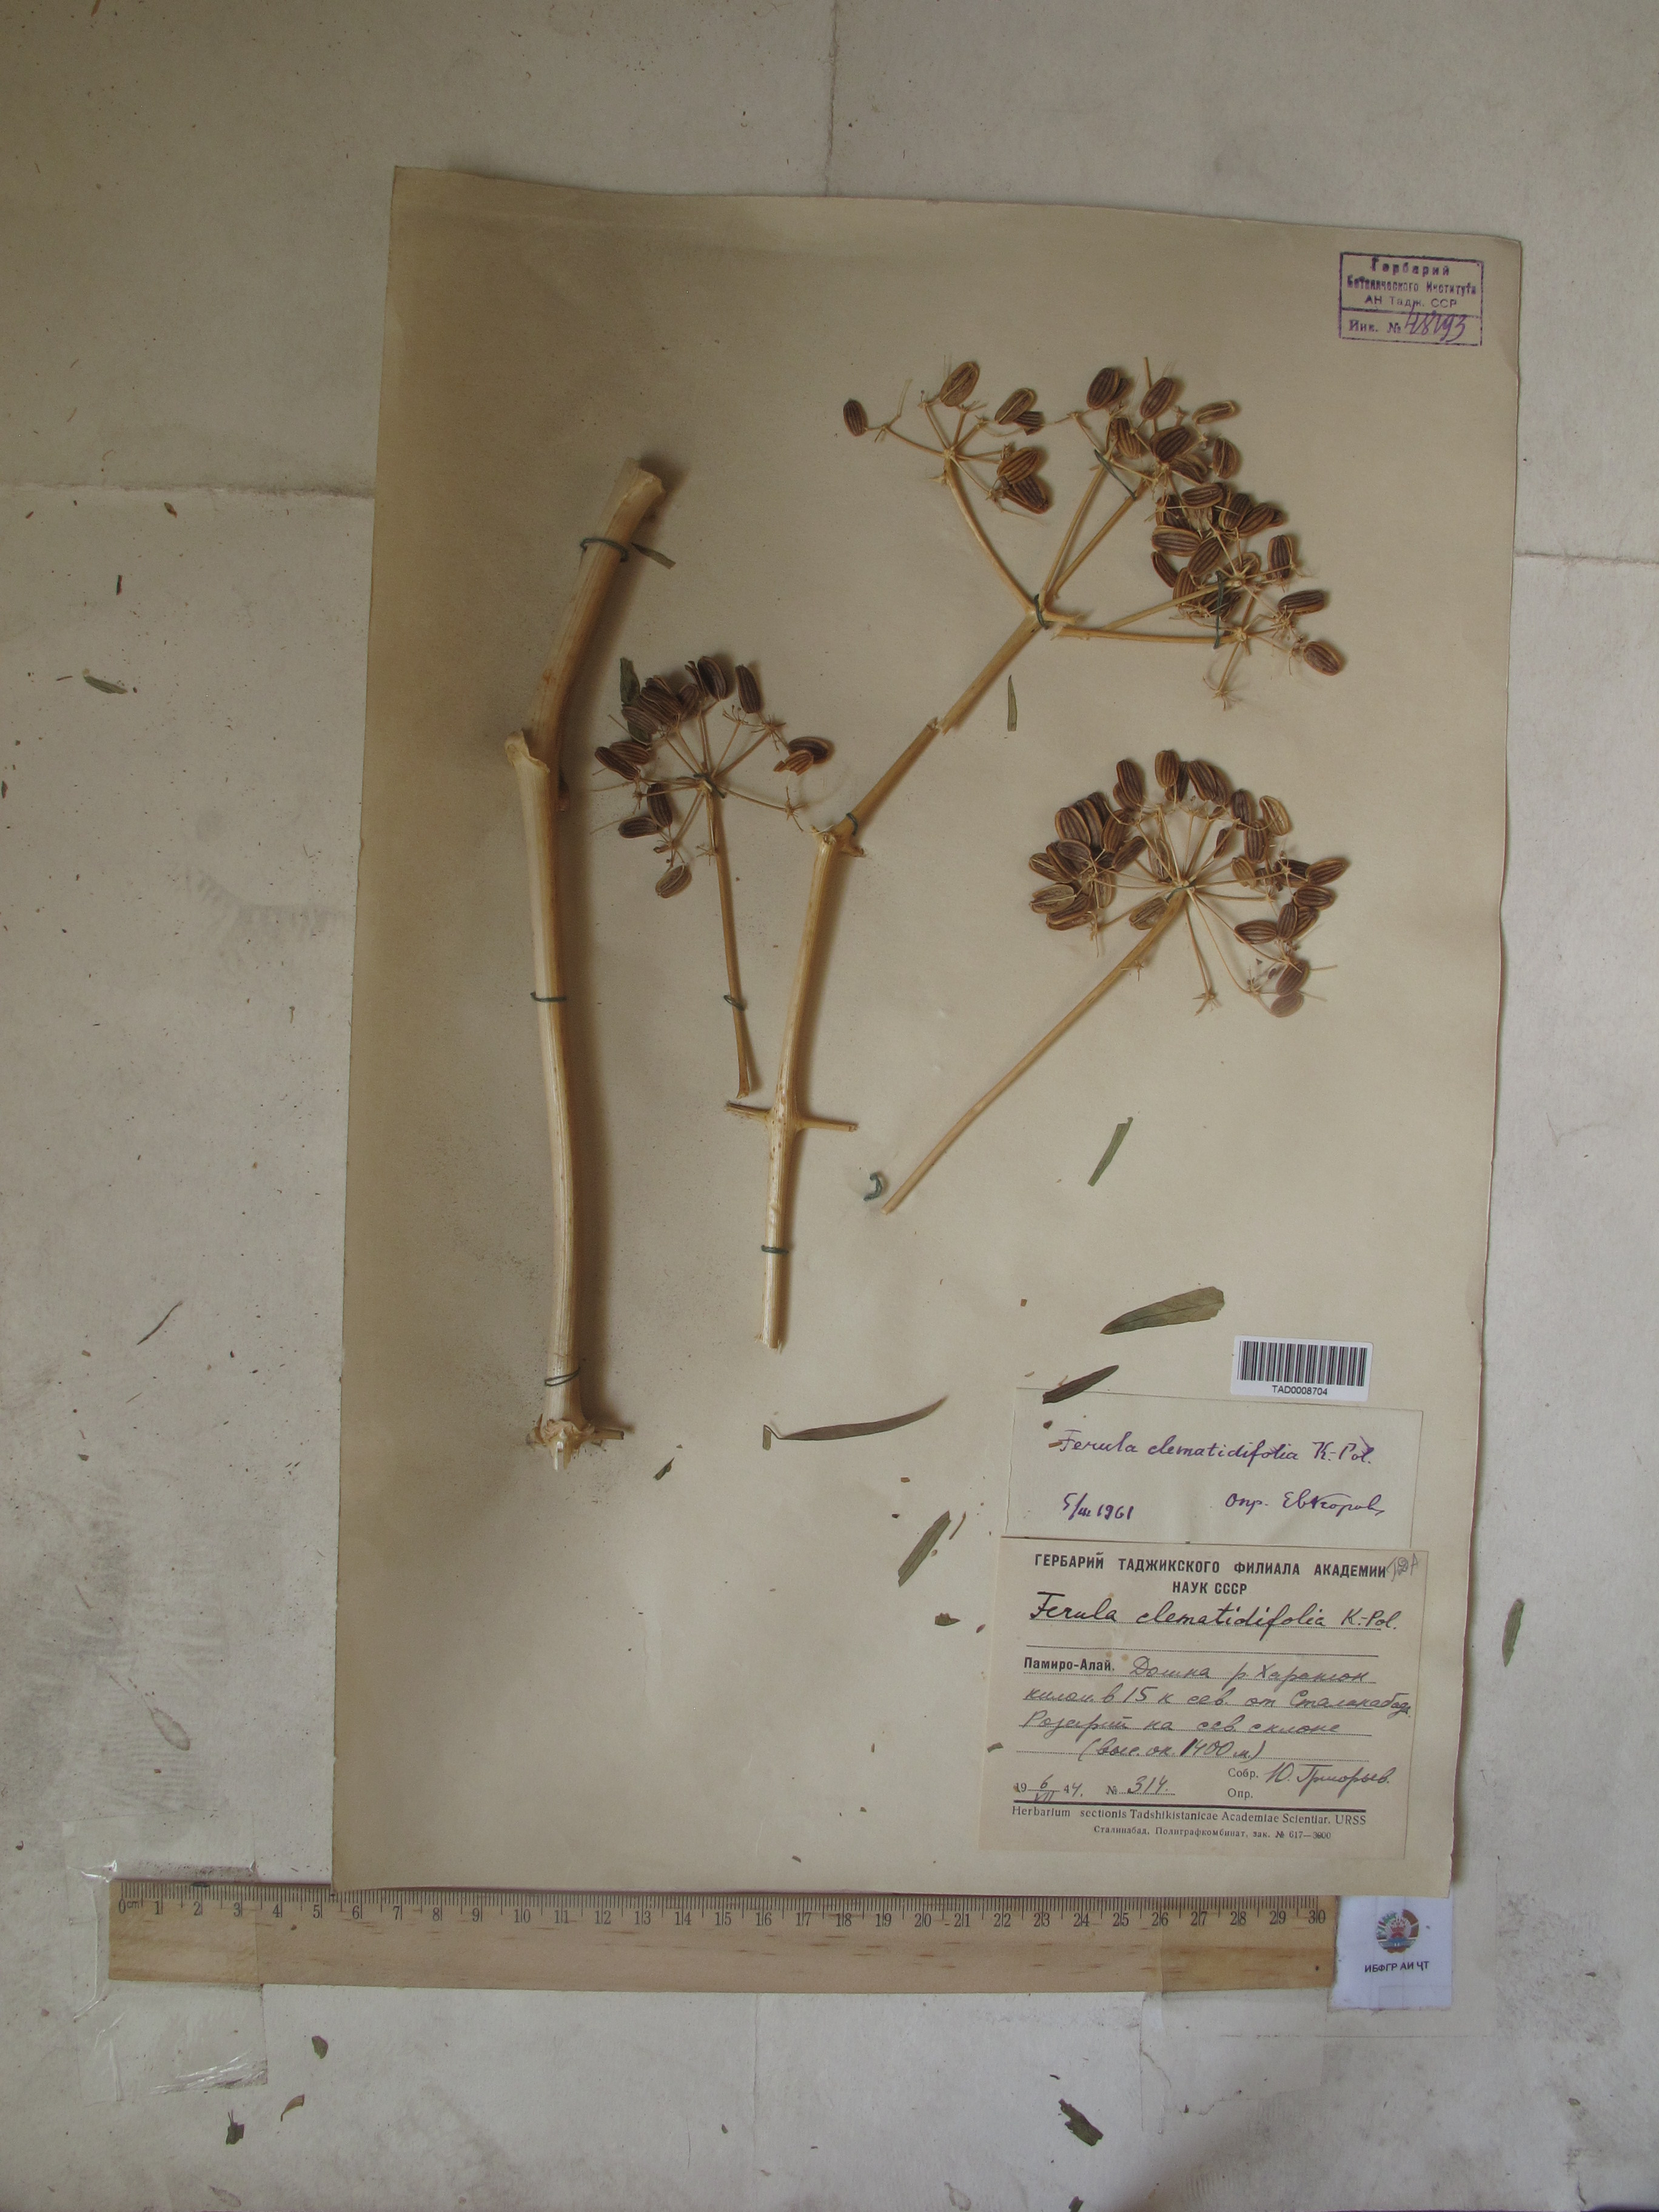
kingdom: Plantae
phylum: Tracheophyta
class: Magnoliopsida
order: Apiales
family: Apiaceae
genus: Ferula
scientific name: Ferula clematidifolia
